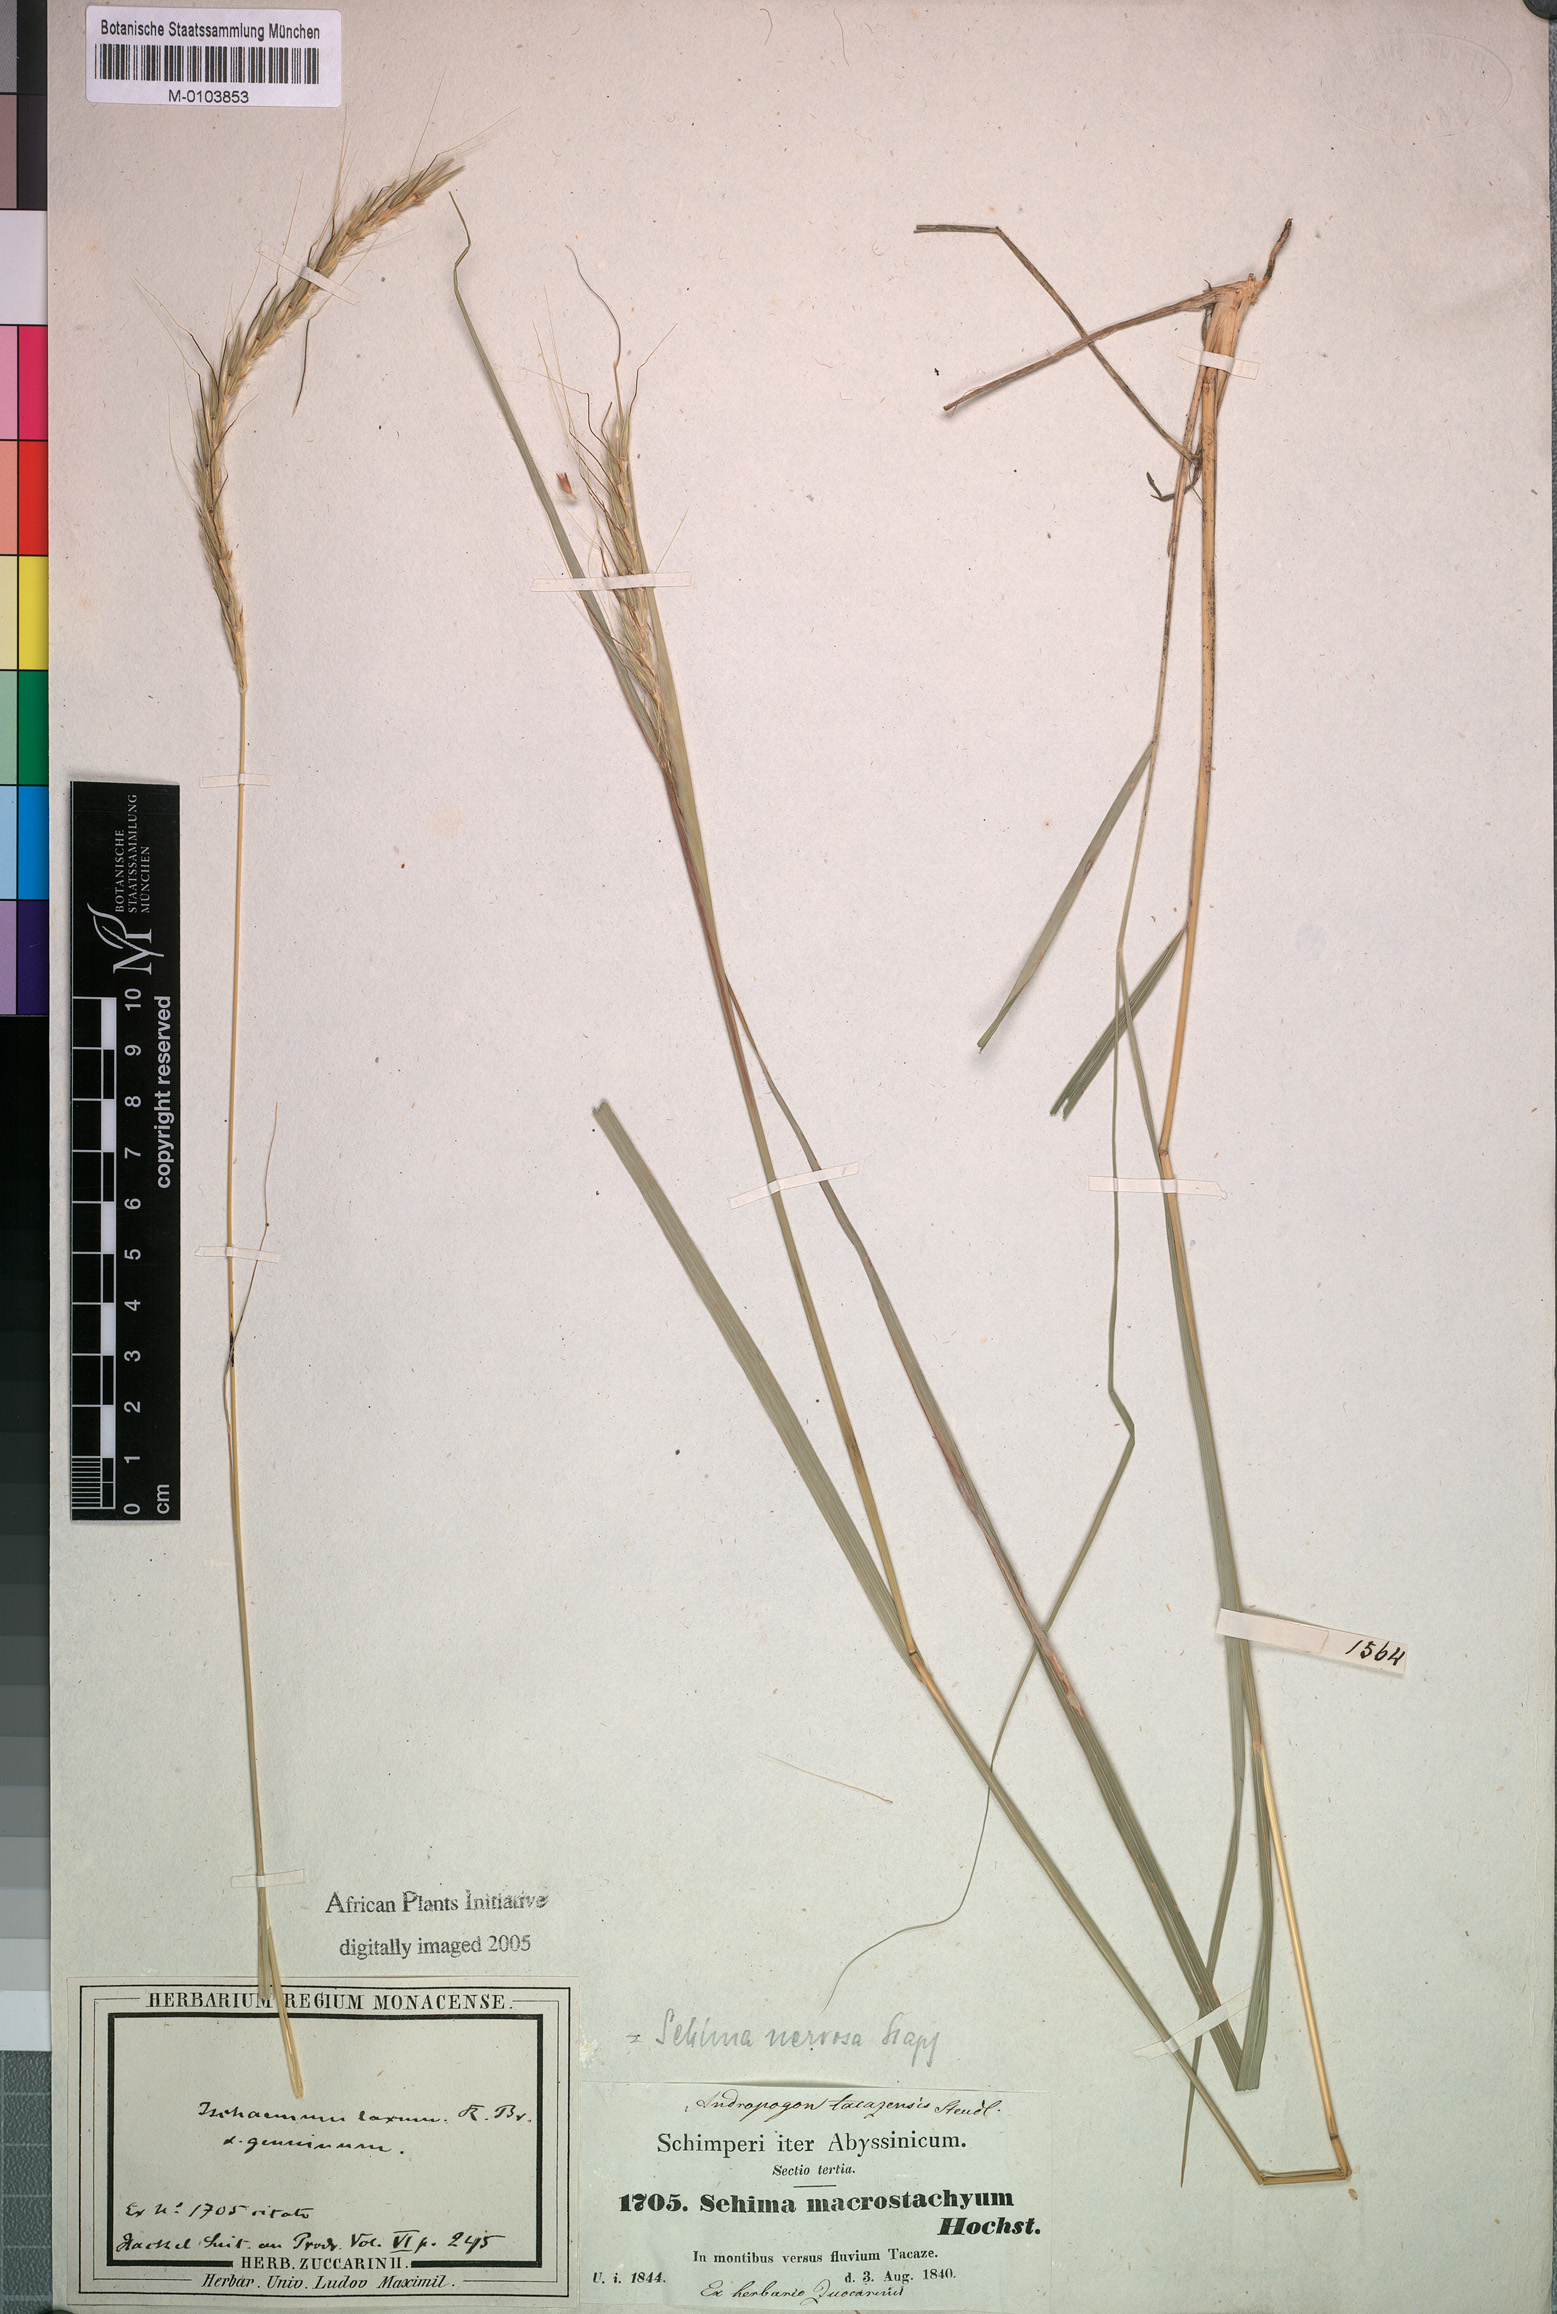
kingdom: Plantae
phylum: Tracheophyta
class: Liliopsida
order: Poales
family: Poaceae
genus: Sehima
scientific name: Sehima nervosa
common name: Rat-tail grass
